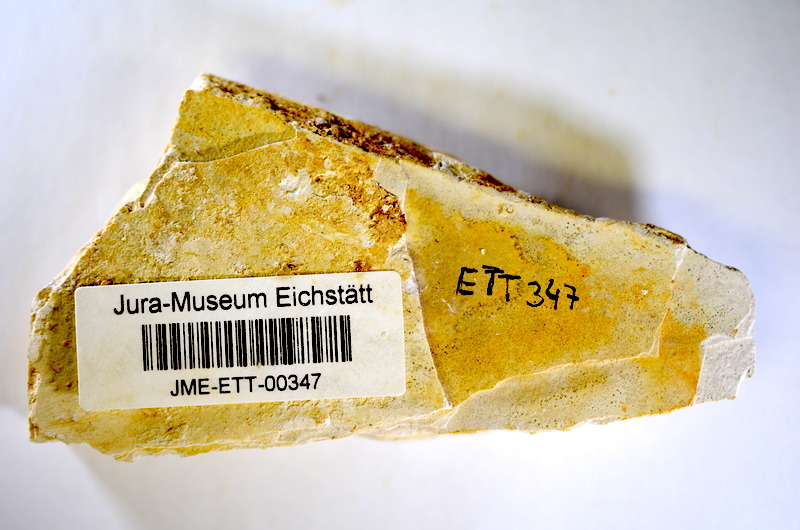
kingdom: Animalia
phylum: Chordata
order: Salmoniformes
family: Orthogonikleithridae
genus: Orthogonikleithrus
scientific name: Orthogonikleithrus hoelli
